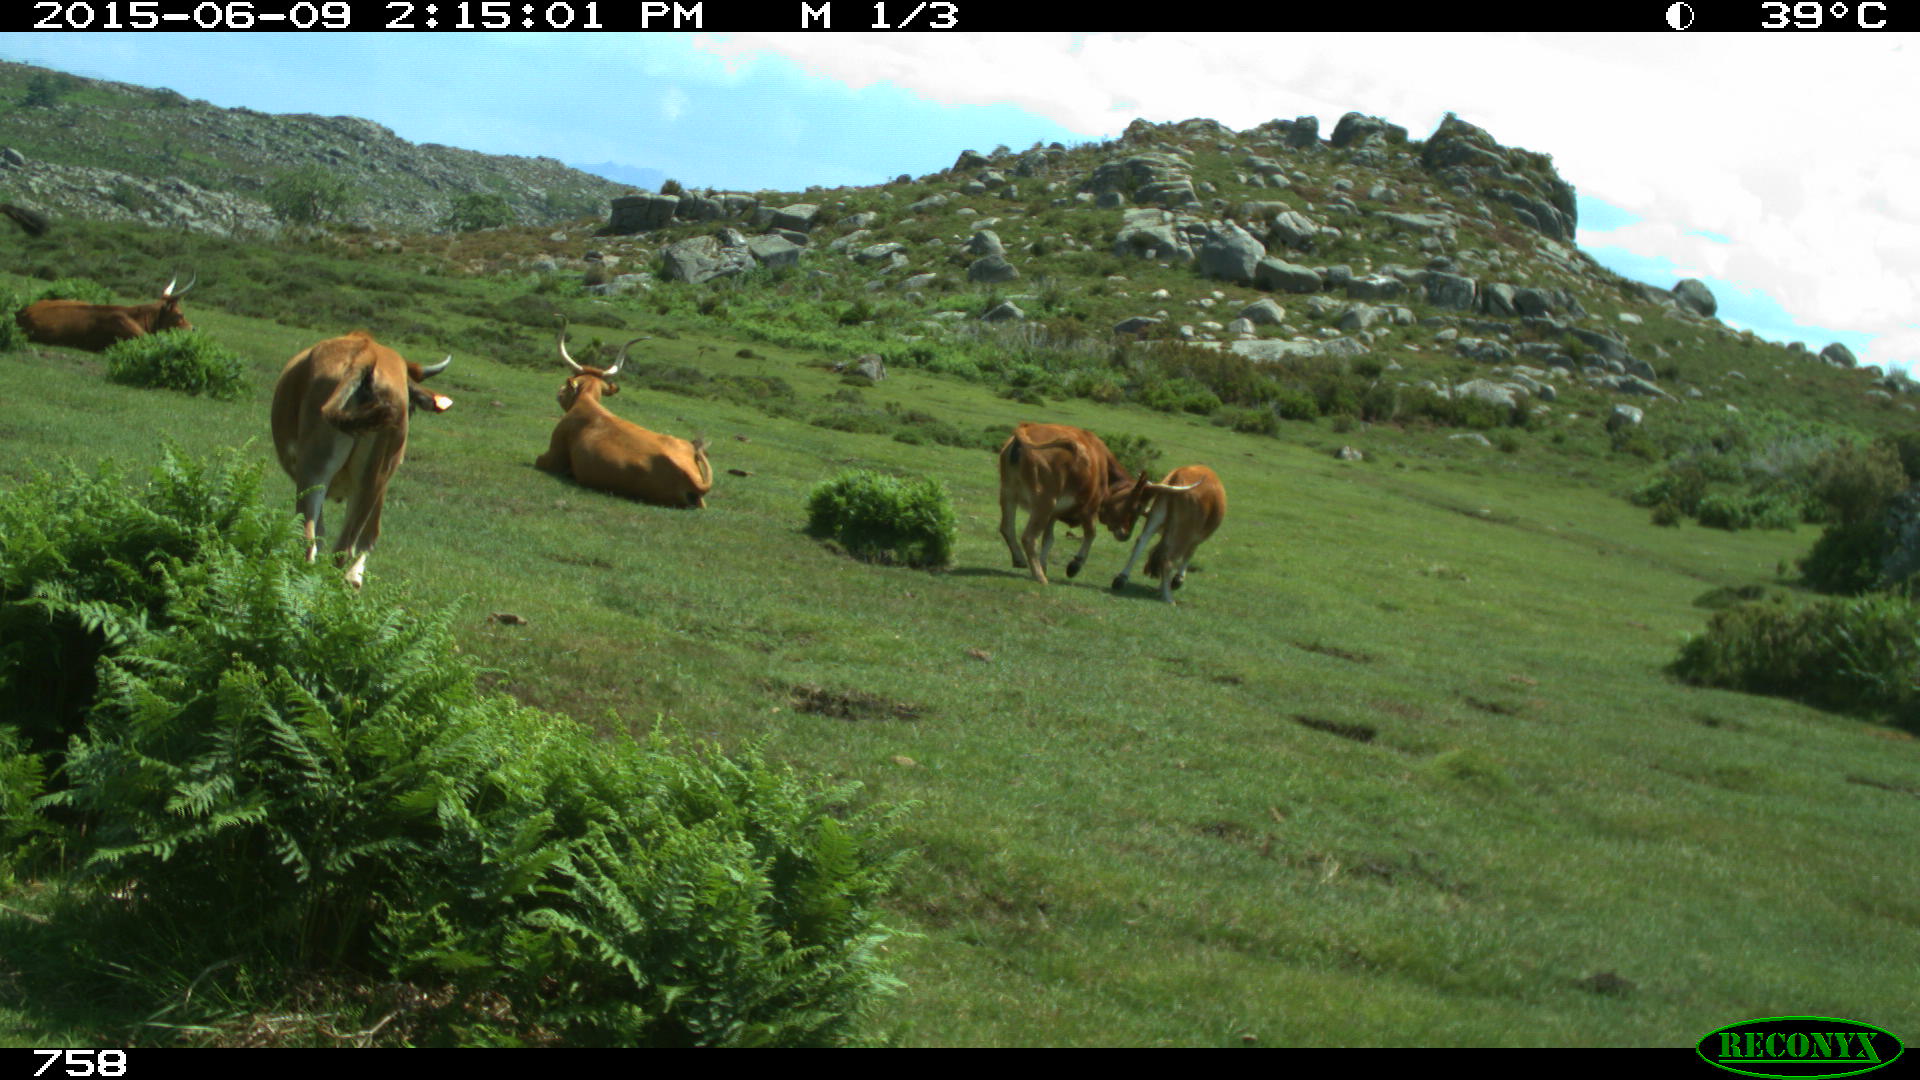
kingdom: Animalia
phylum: Chordata
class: Mammalia
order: Artiodactyla
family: Bovidae
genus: Bos
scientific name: Bos taurus
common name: Domesticated cattle
